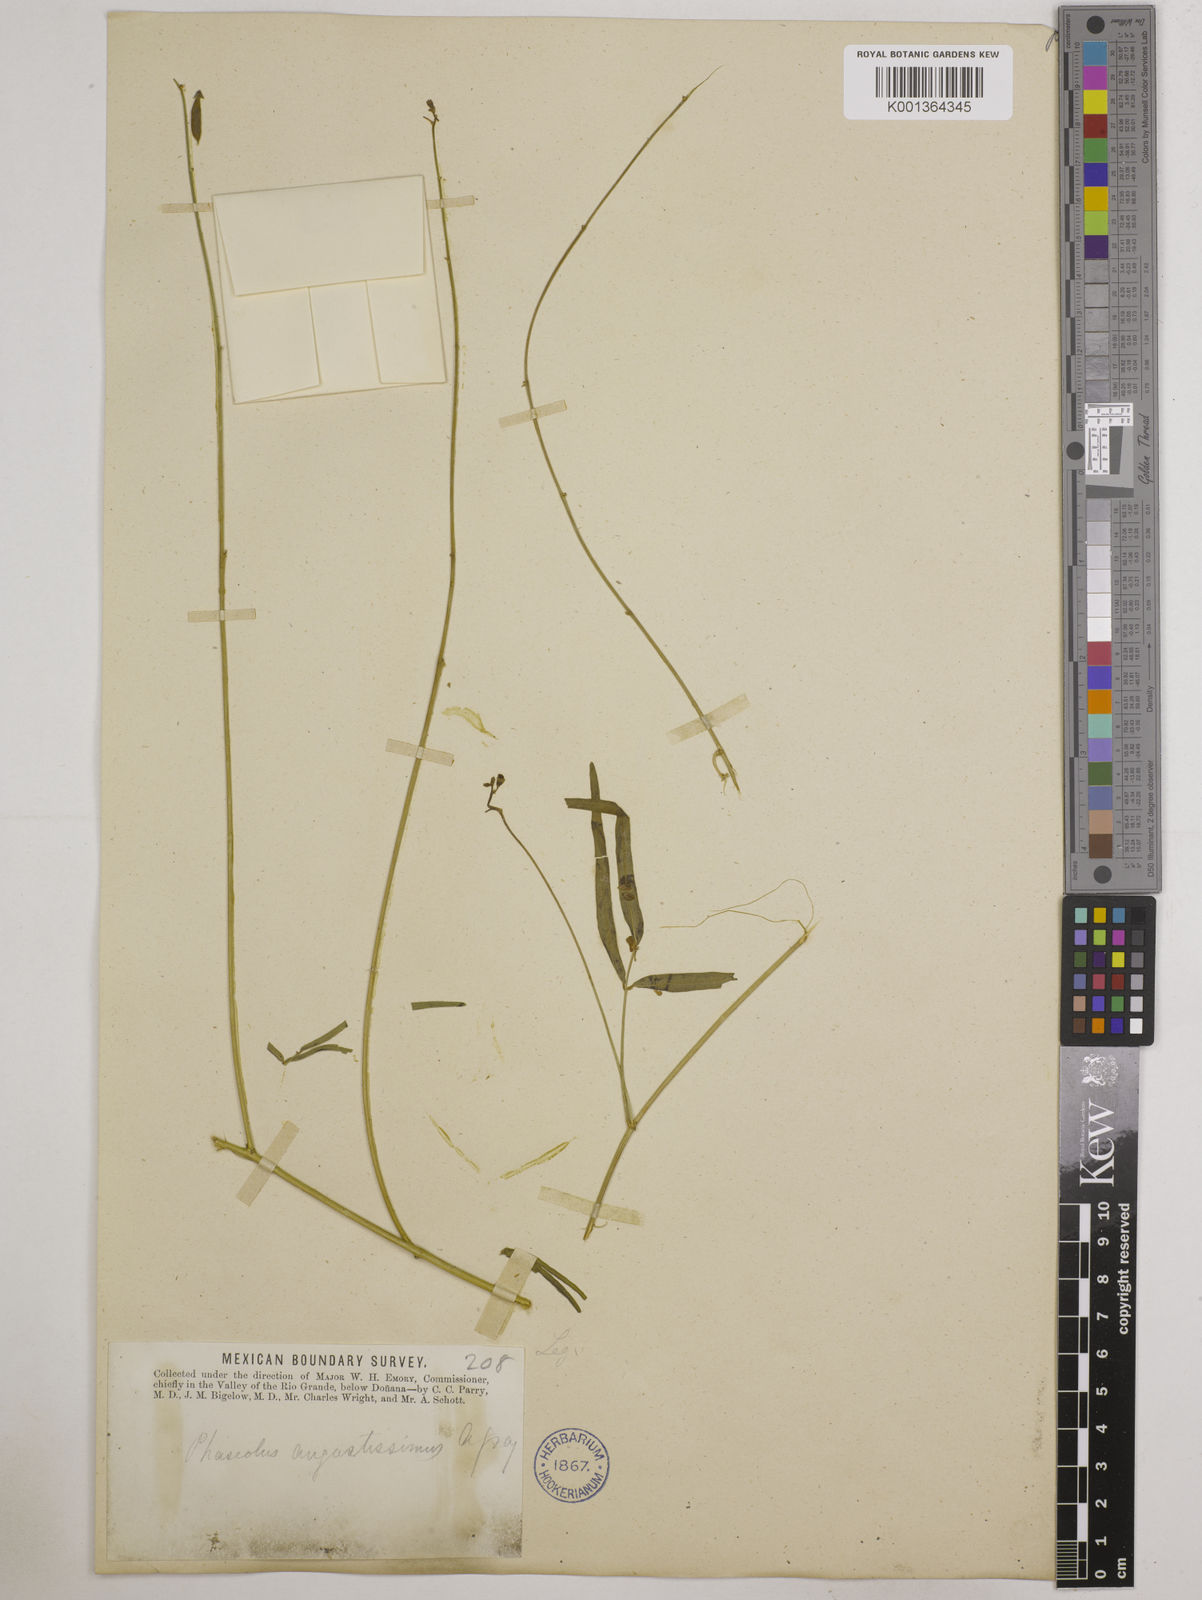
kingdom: Plantae
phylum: Tracheophyta
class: Magnoliopsida
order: Fabales
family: Fabaceae
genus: Phaseolus
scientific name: Phaseolus angustissimus
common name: Slimleaf bean
